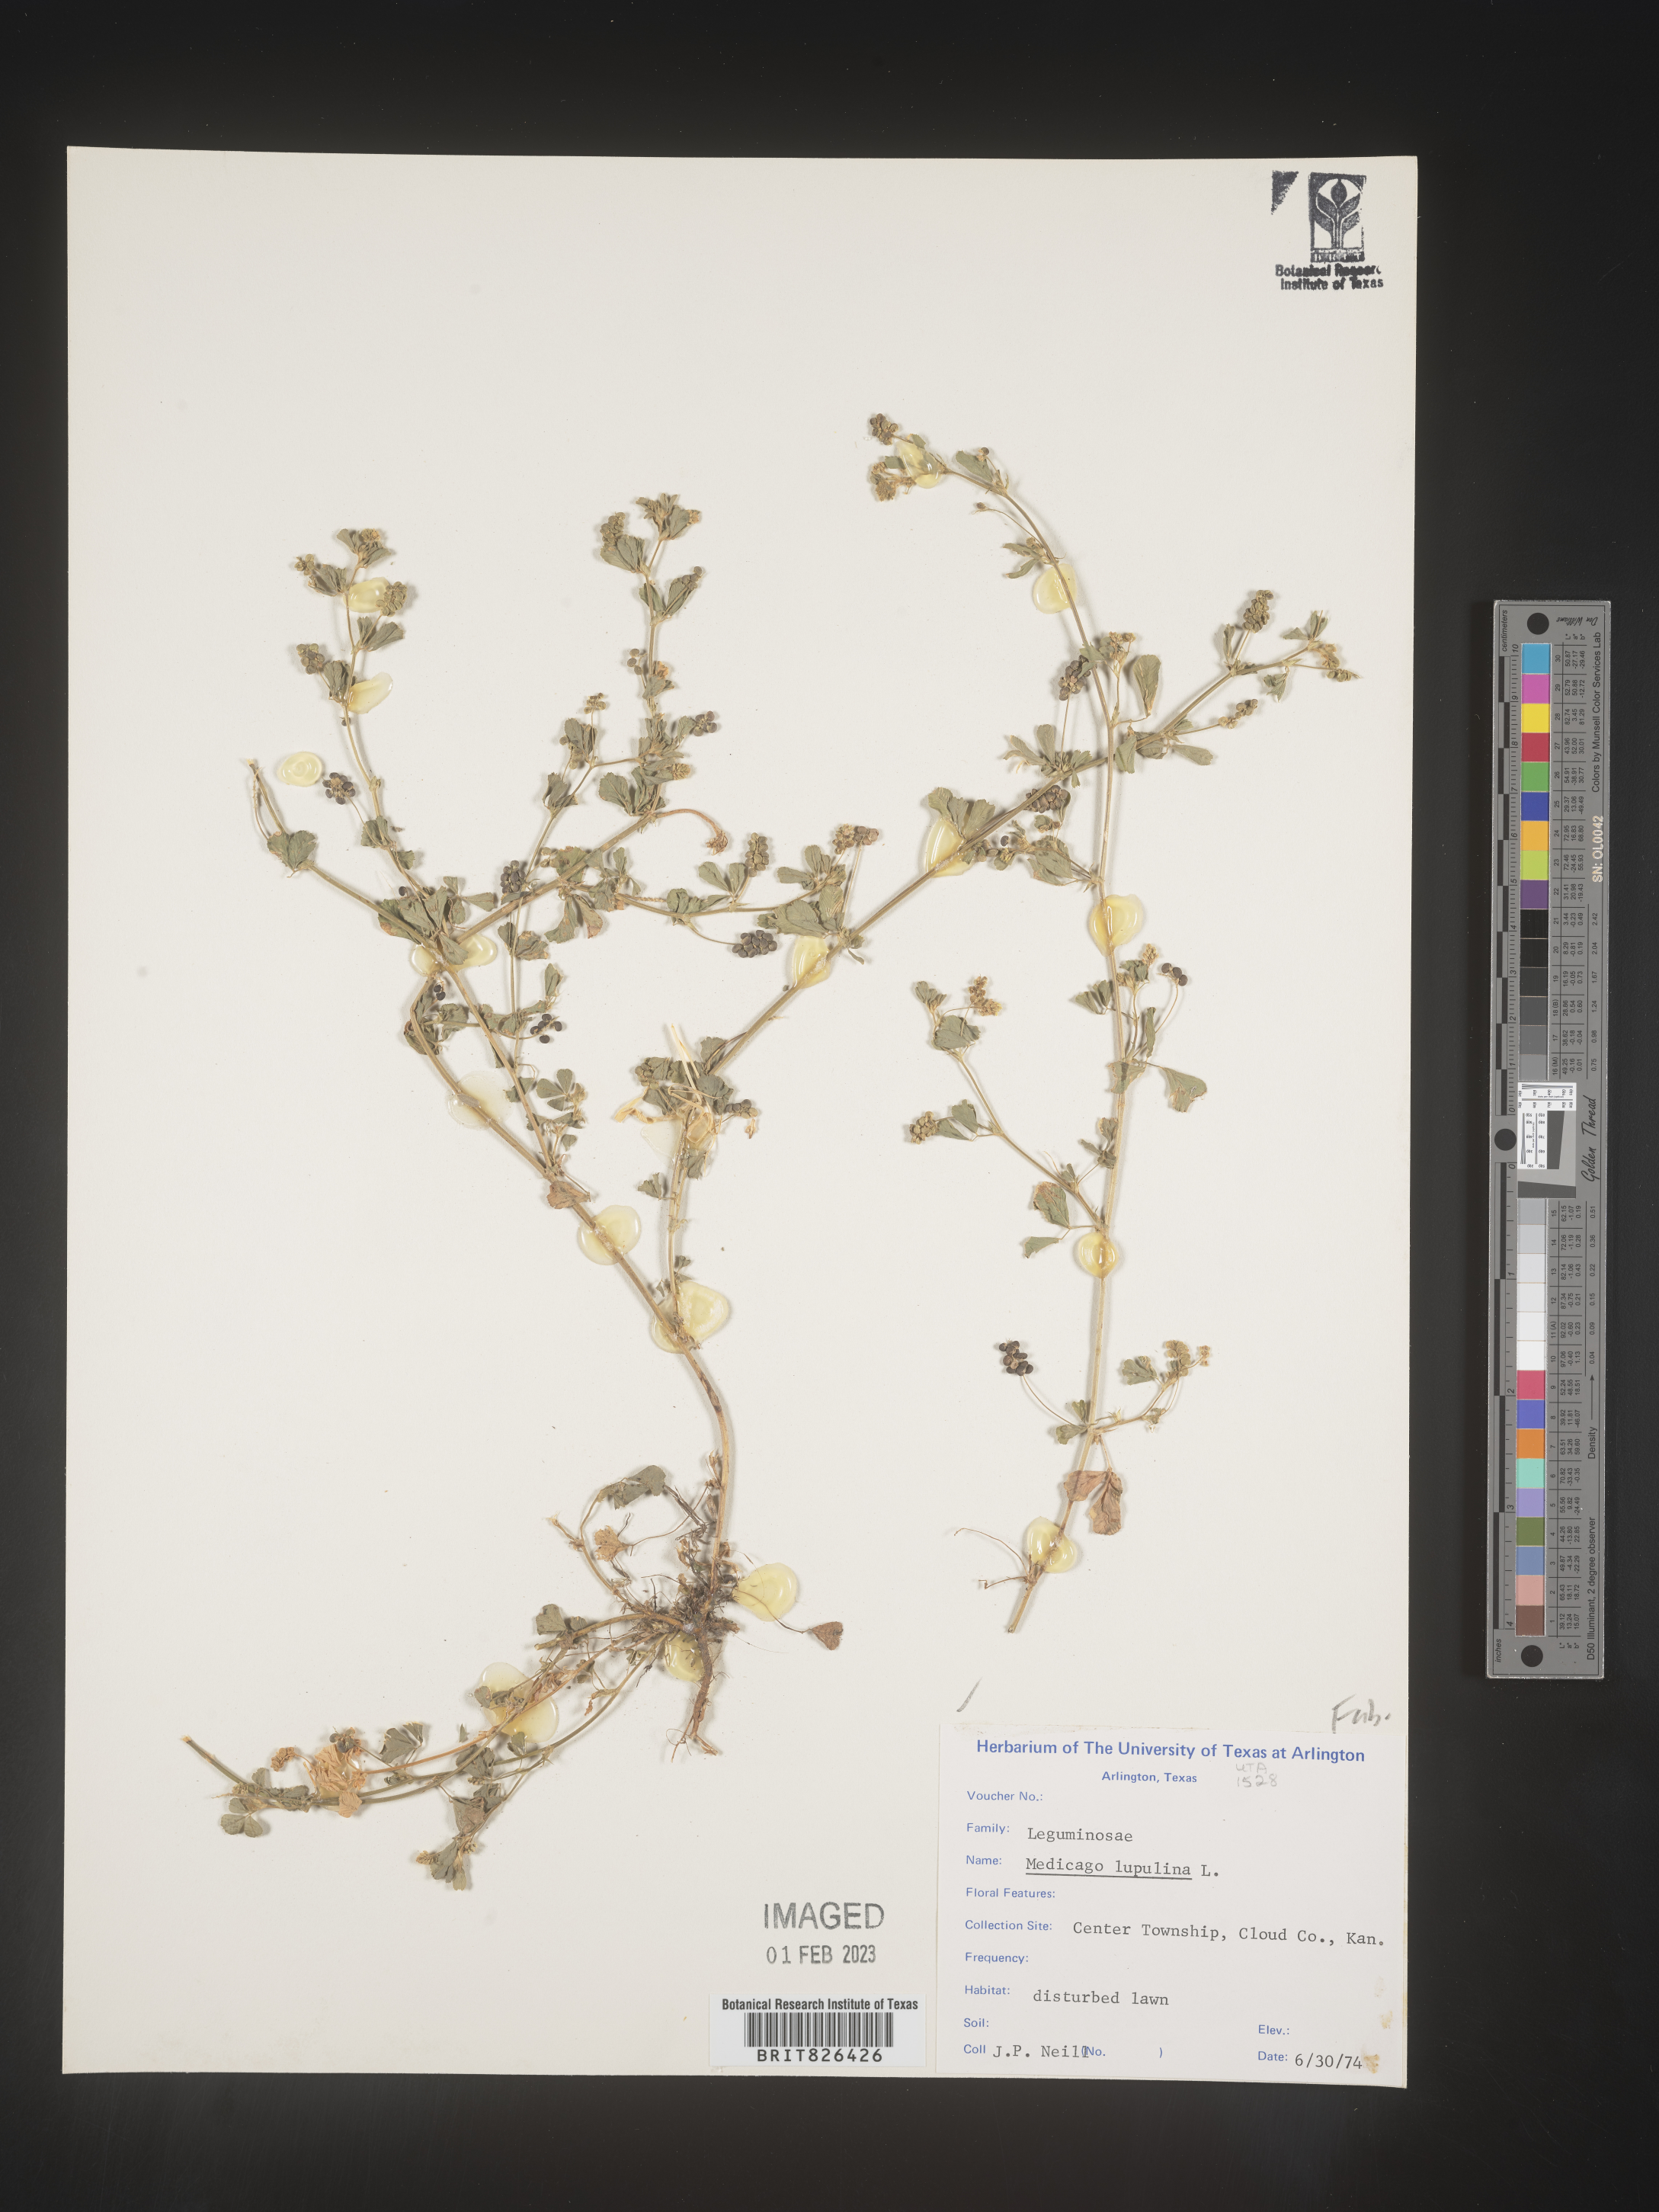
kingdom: Plantae
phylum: Tracheophyta
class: Magnoliopsida
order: Fabales
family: Fabaceae
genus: Medicago
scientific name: Medicago lupulina
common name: Black medick
